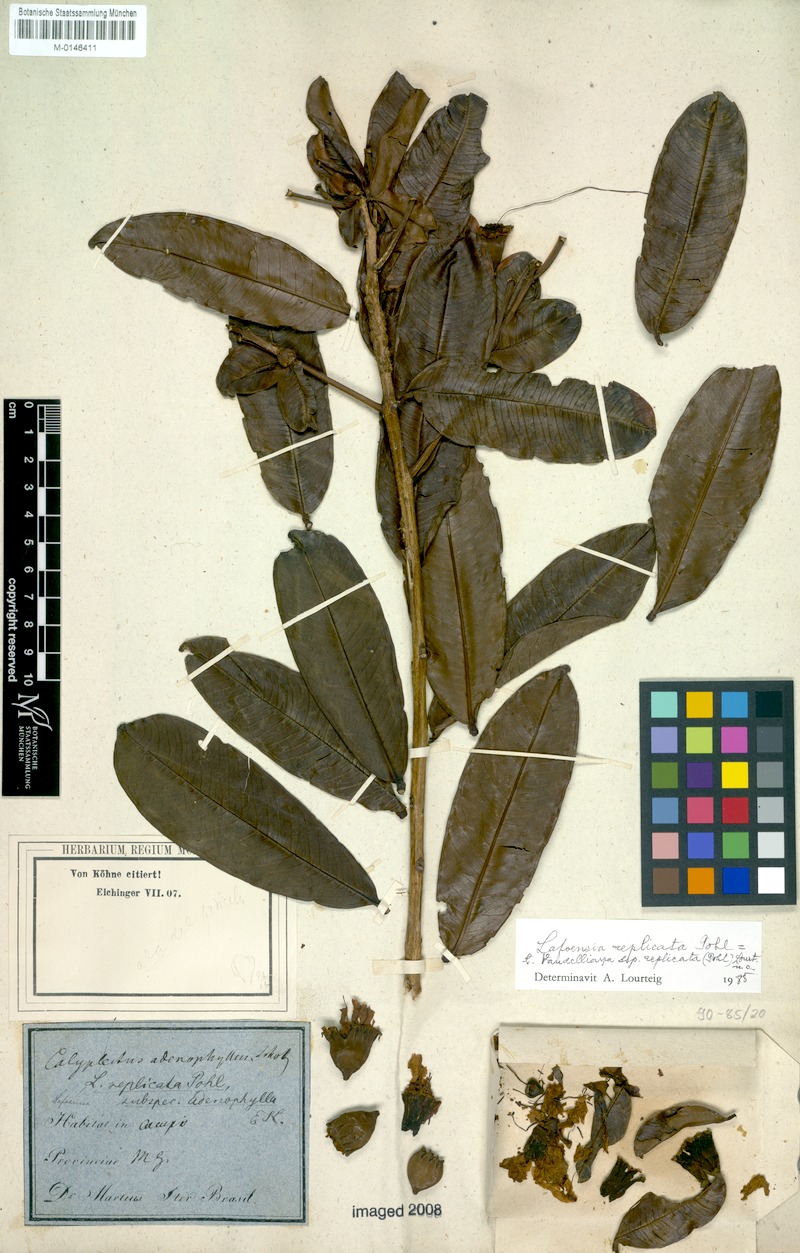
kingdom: Plantae
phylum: Tracheophyta
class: Magnoliopsida
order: Myrtales
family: Lythraceae
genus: Lafoensia
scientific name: Lafoensia vandelliana
